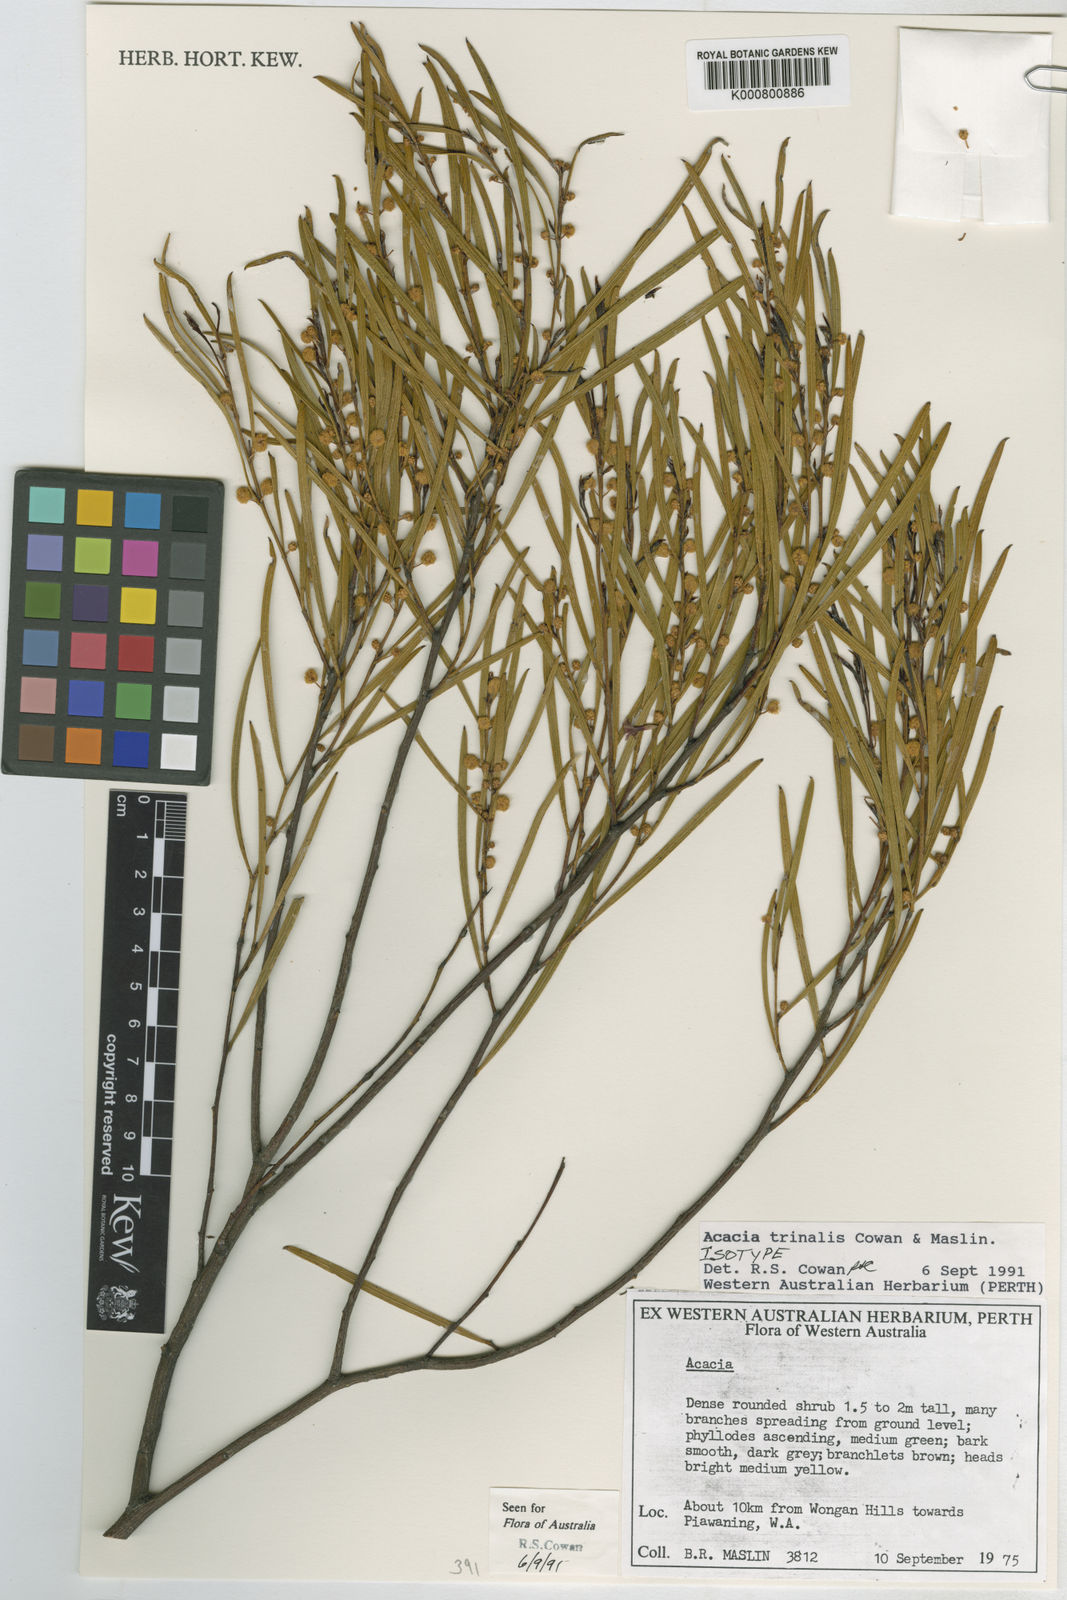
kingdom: Plantae
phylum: Tracheophyta
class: Magnoliopsida
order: Fabales
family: Fabaceae
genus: Acacia
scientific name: Acacia trinalis
